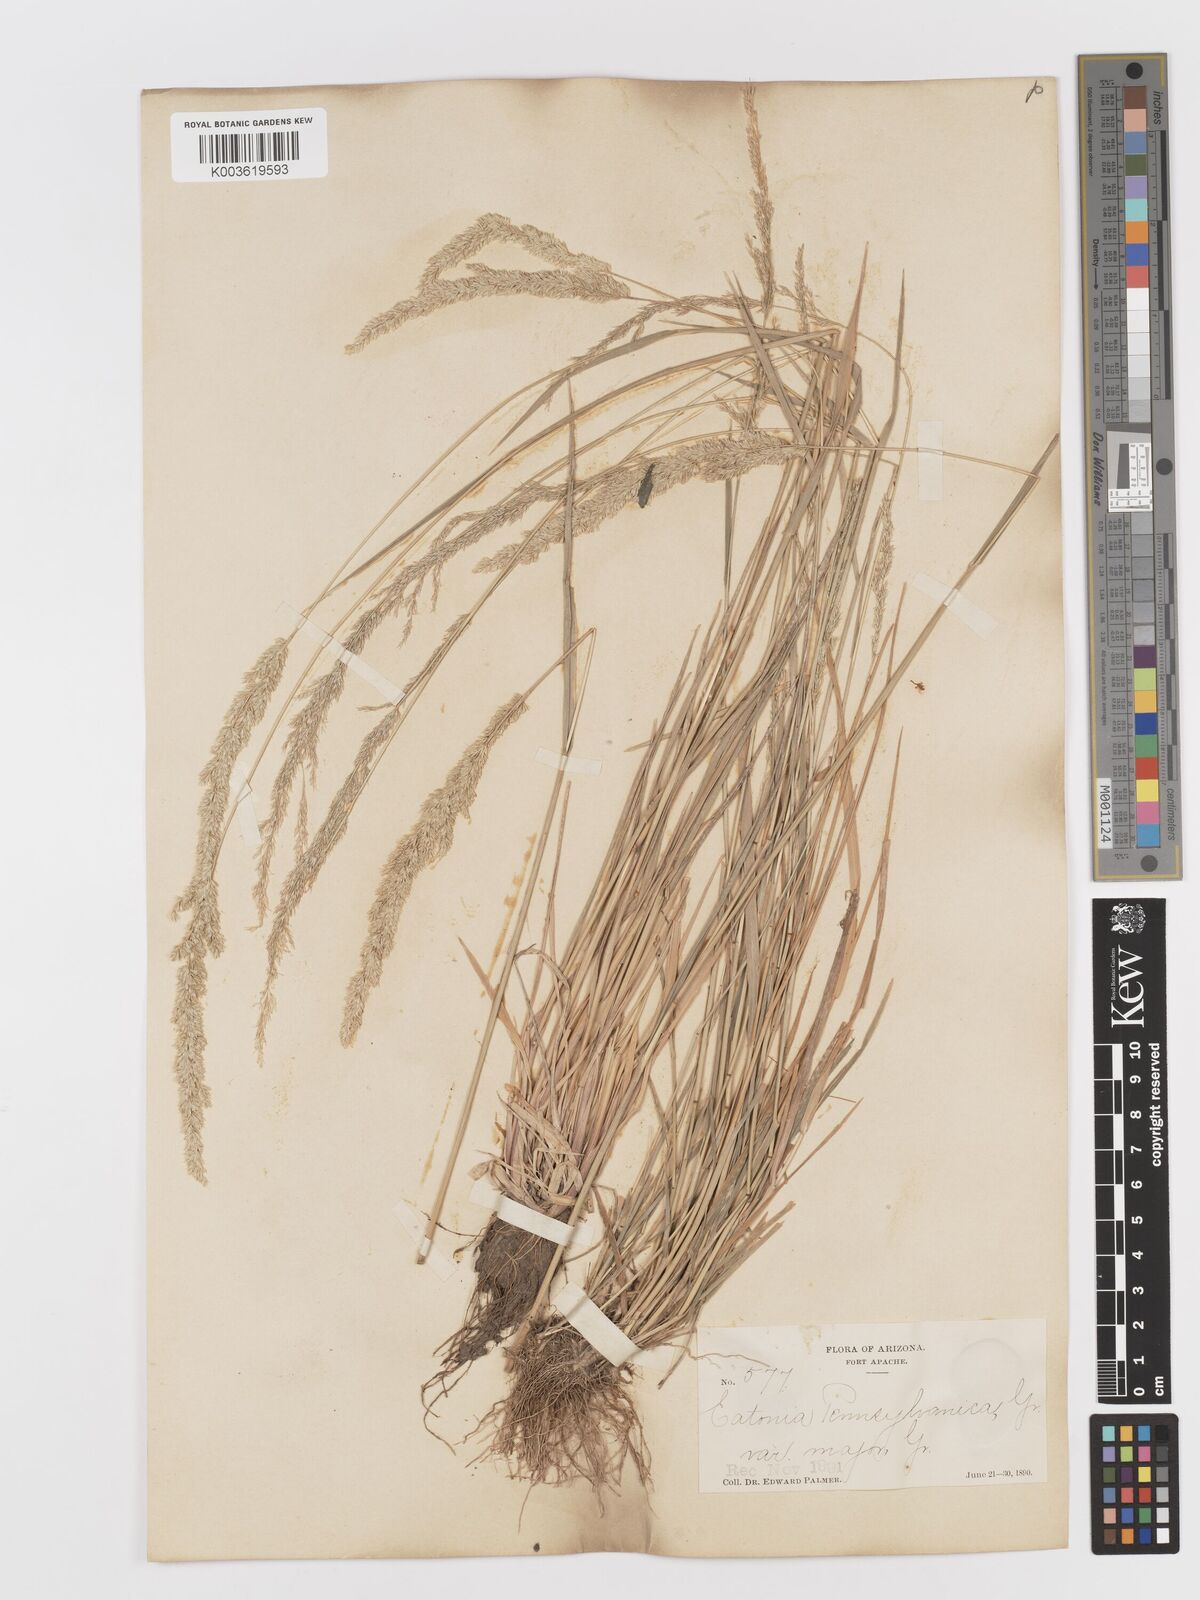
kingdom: Plantae
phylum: Tracheophyta
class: Liliopsida
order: Poales
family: Poaceae
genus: Sphenopholis
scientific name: Sphenopholis obtusata
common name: Prairie grass
